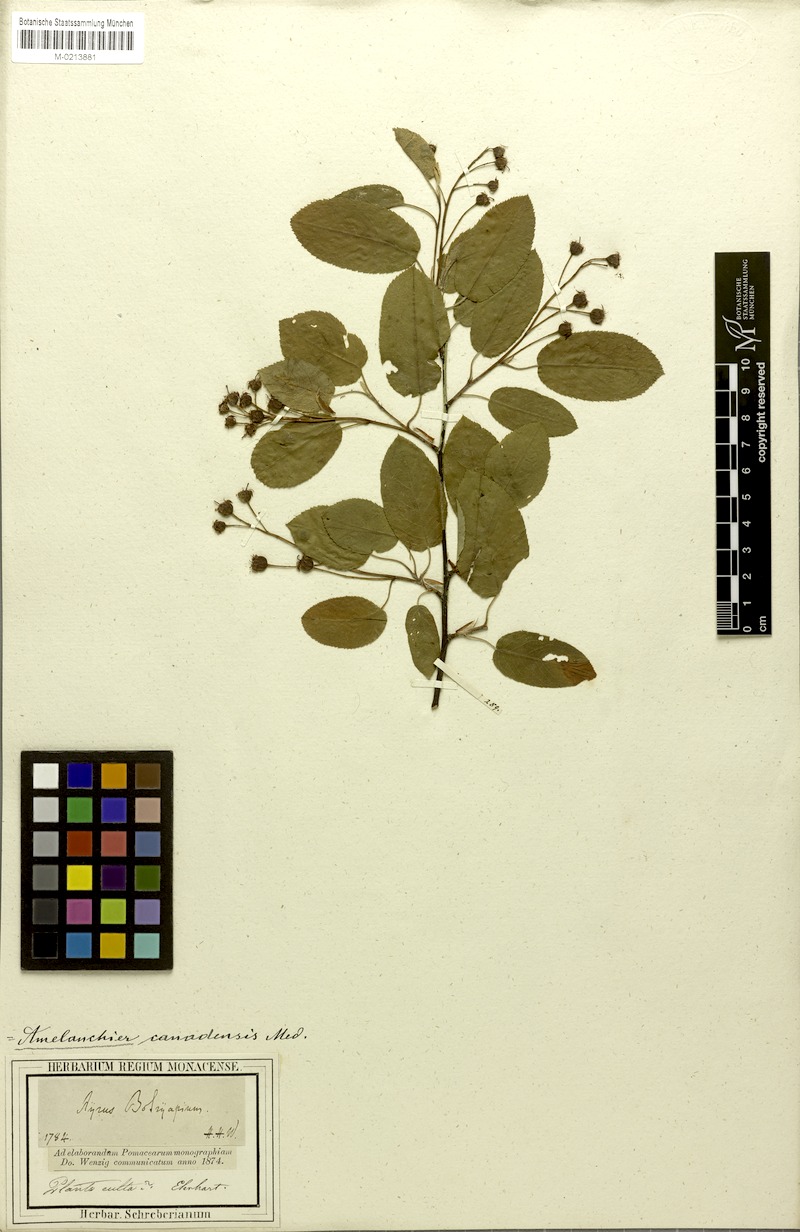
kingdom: Plantae
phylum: Tracheophyta
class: Magnoliopsida
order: Rosales
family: Rosaceae
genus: Amelanchier
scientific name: Amelanchier canadensis
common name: Thicket serviceberry
